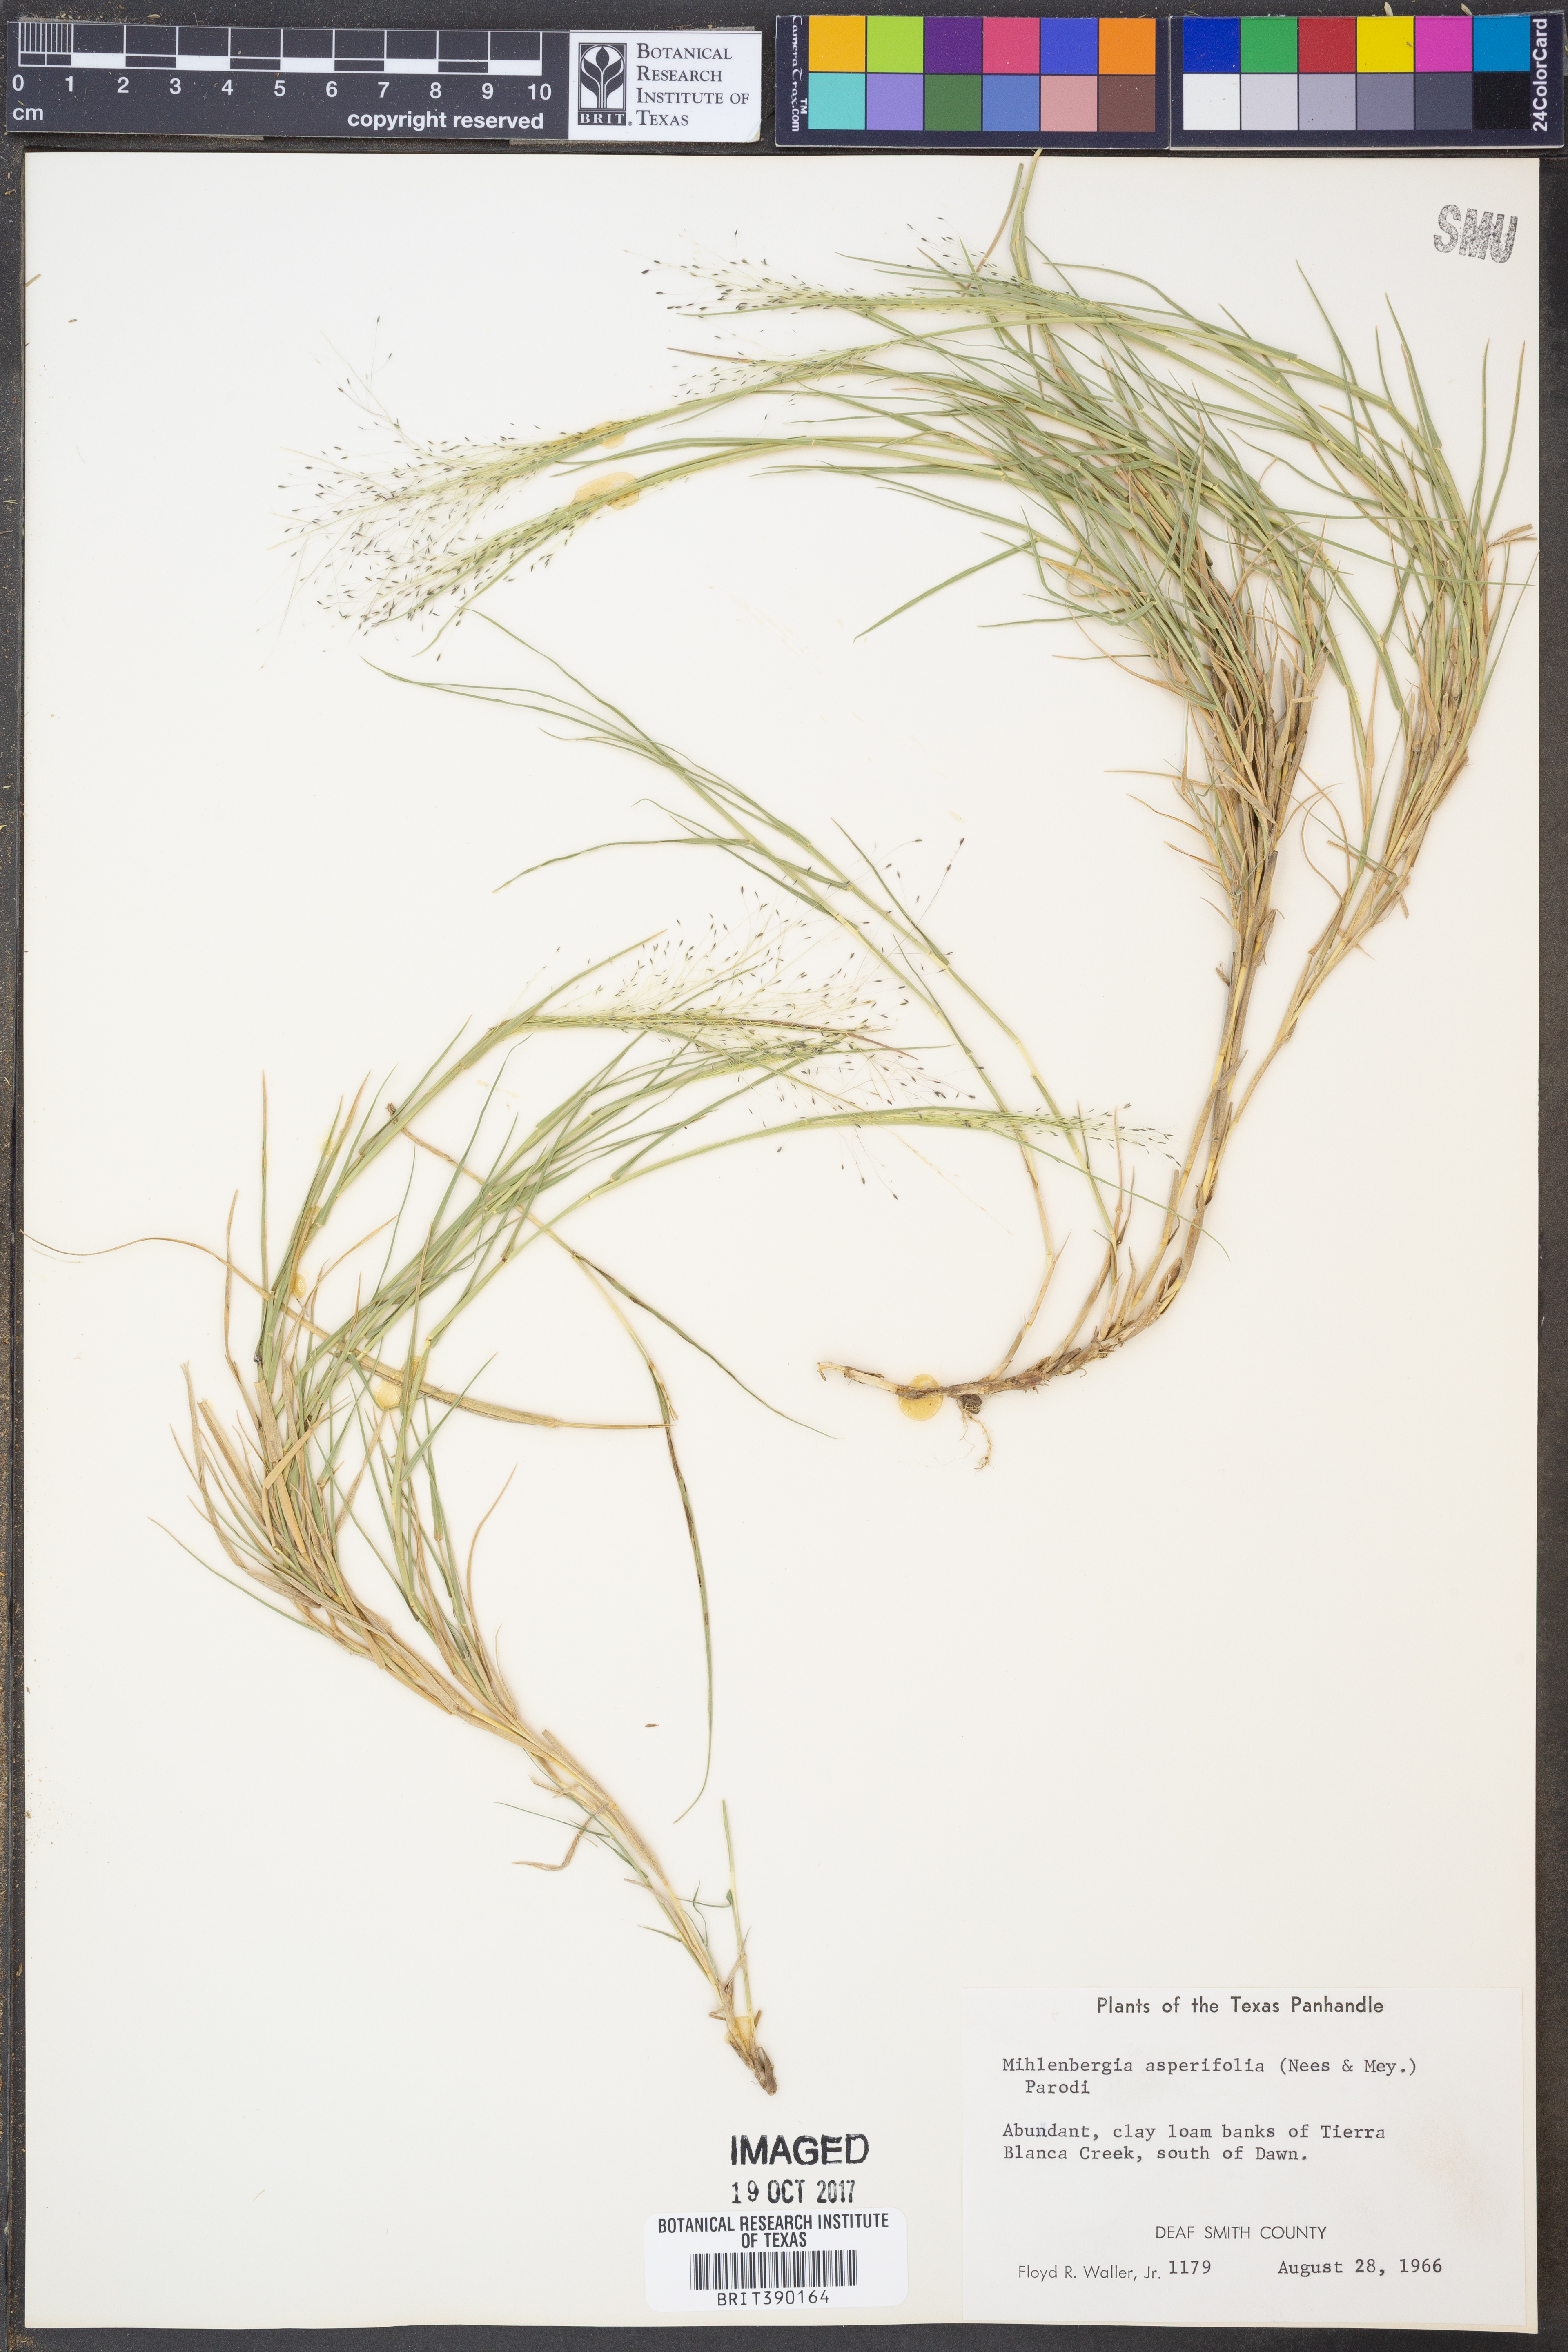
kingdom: Plantae
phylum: Tracheophyta
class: Liliopsida
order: Poales
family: Poaceae
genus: Muhlenbergia
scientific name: Muhlenbergia asperifolia
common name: Alkali muhly
